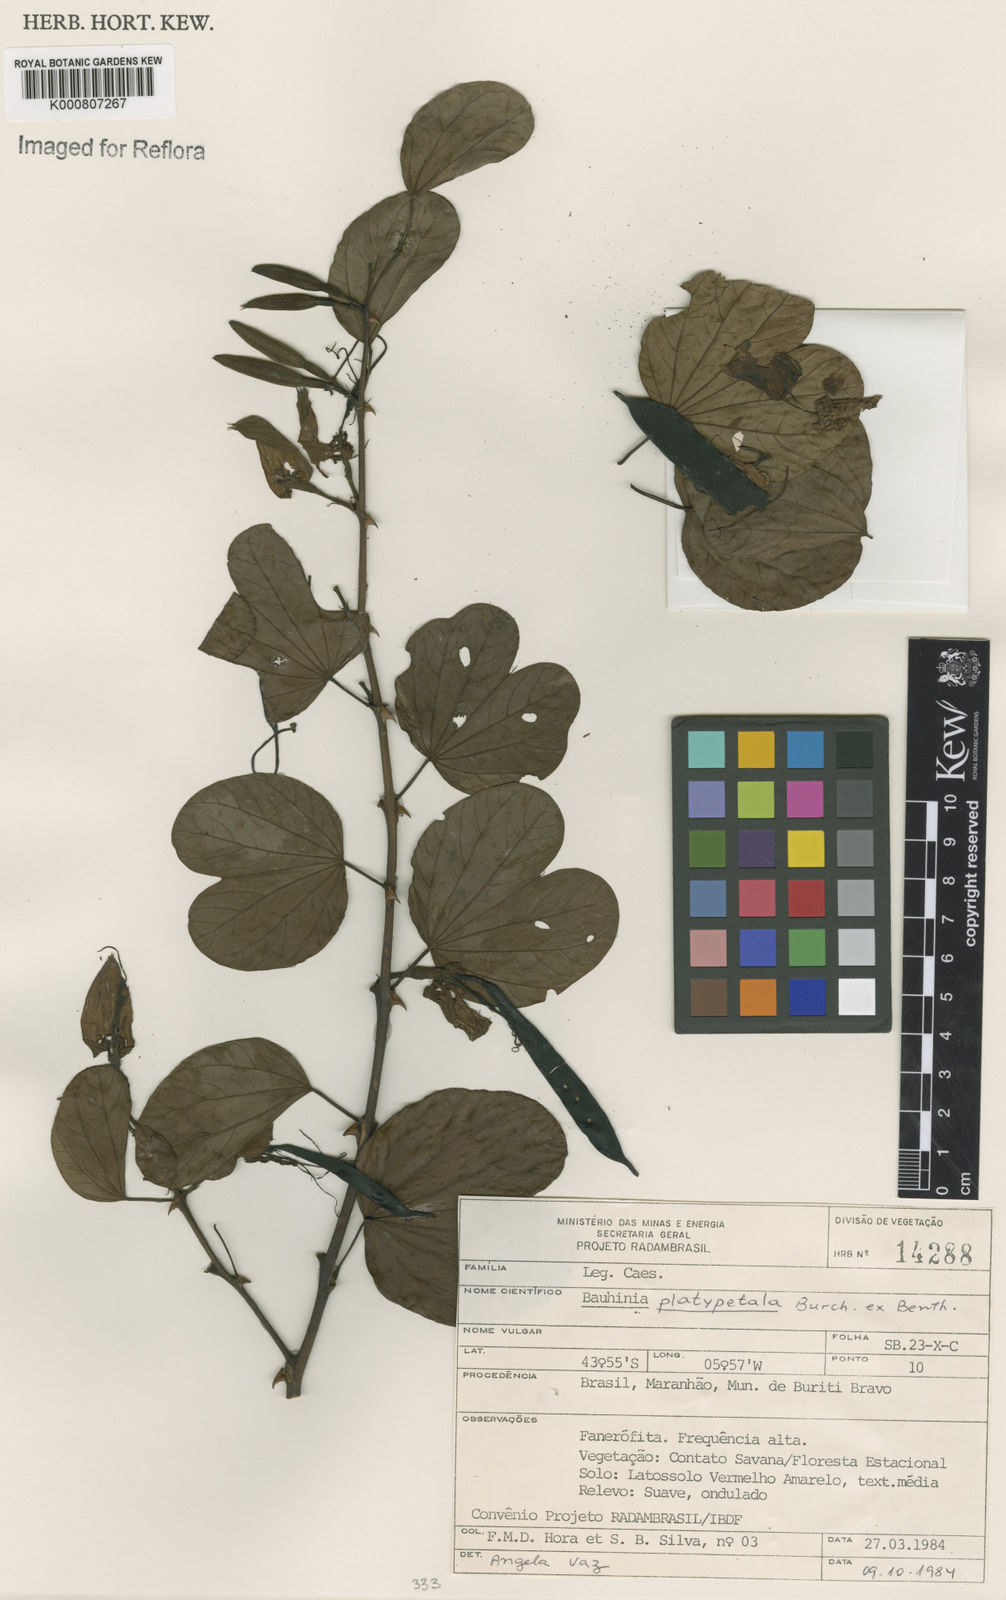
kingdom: Plantae
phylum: Tracheophyta
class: Magnoliopsida
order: Fabales
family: Fabaceae
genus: Bauhinia
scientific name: Bauhinia platypetala
